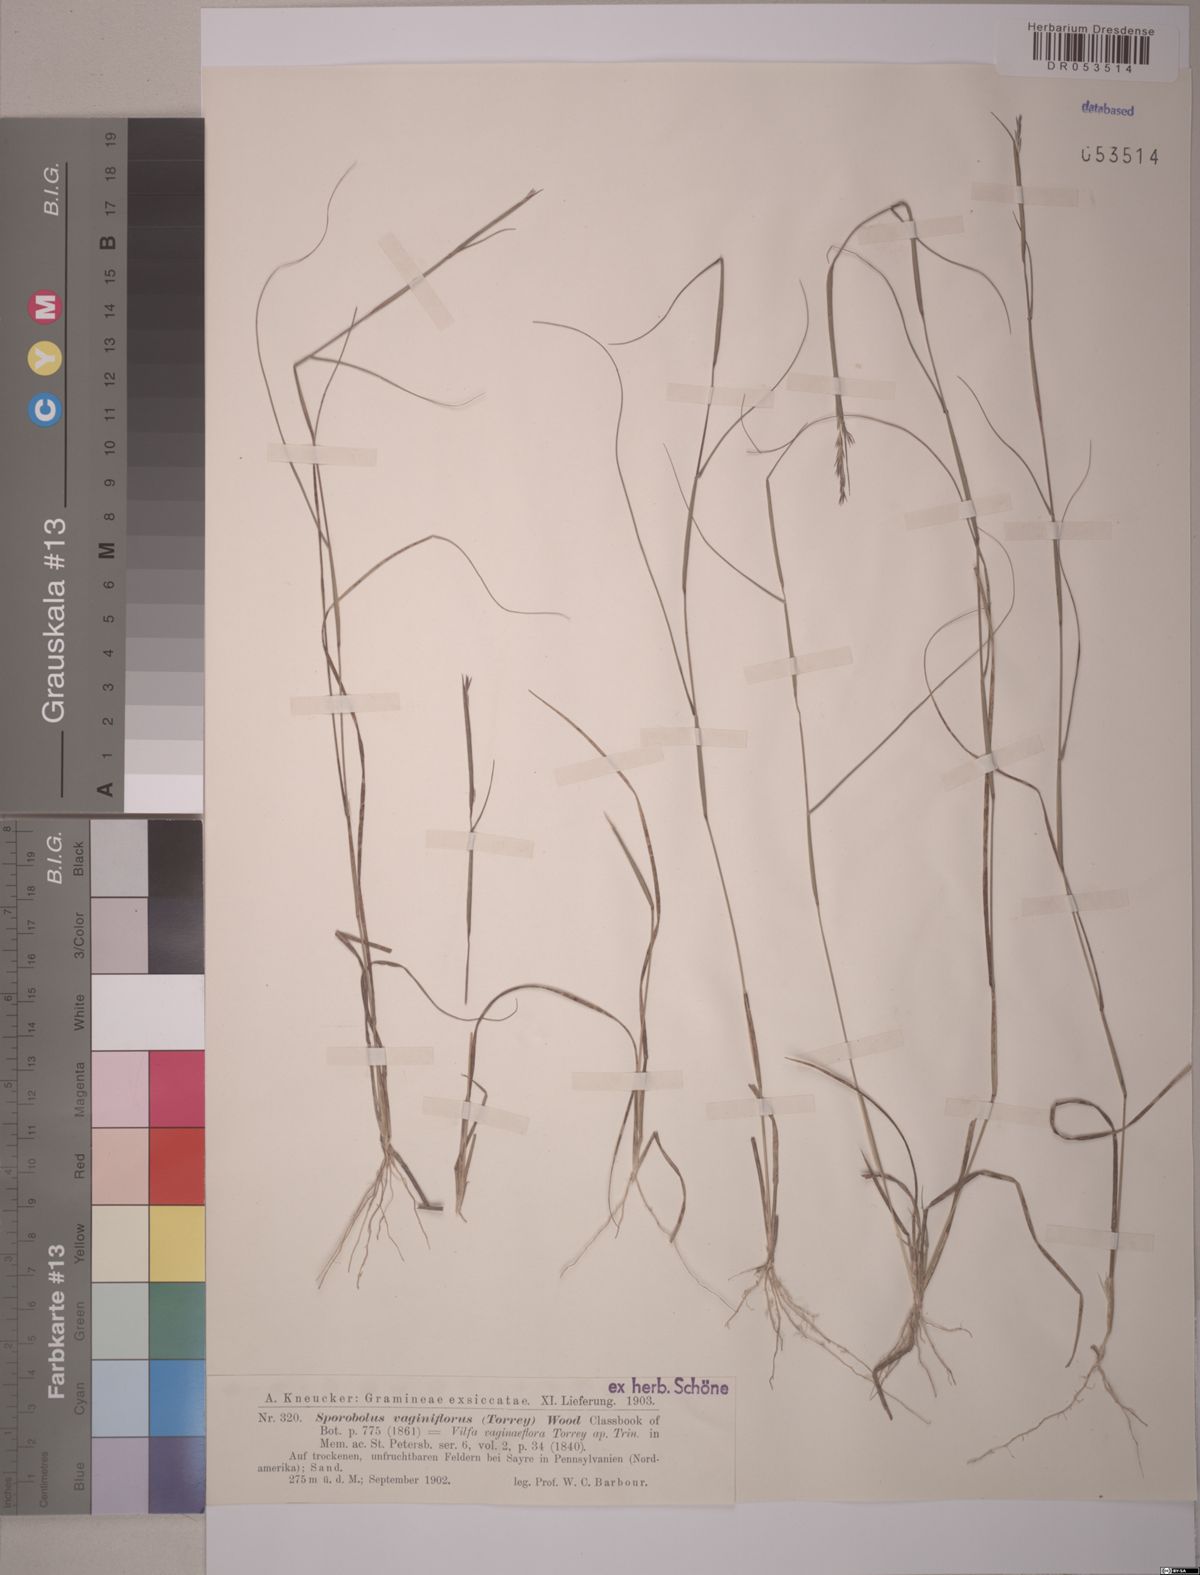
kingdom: Plantae
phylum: Tracheophyta
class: Liliopsida
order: Poales
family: Poaceae
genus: Sporobolus
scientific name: Sporobolus vaginiflorus
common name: Poverty dropseed
